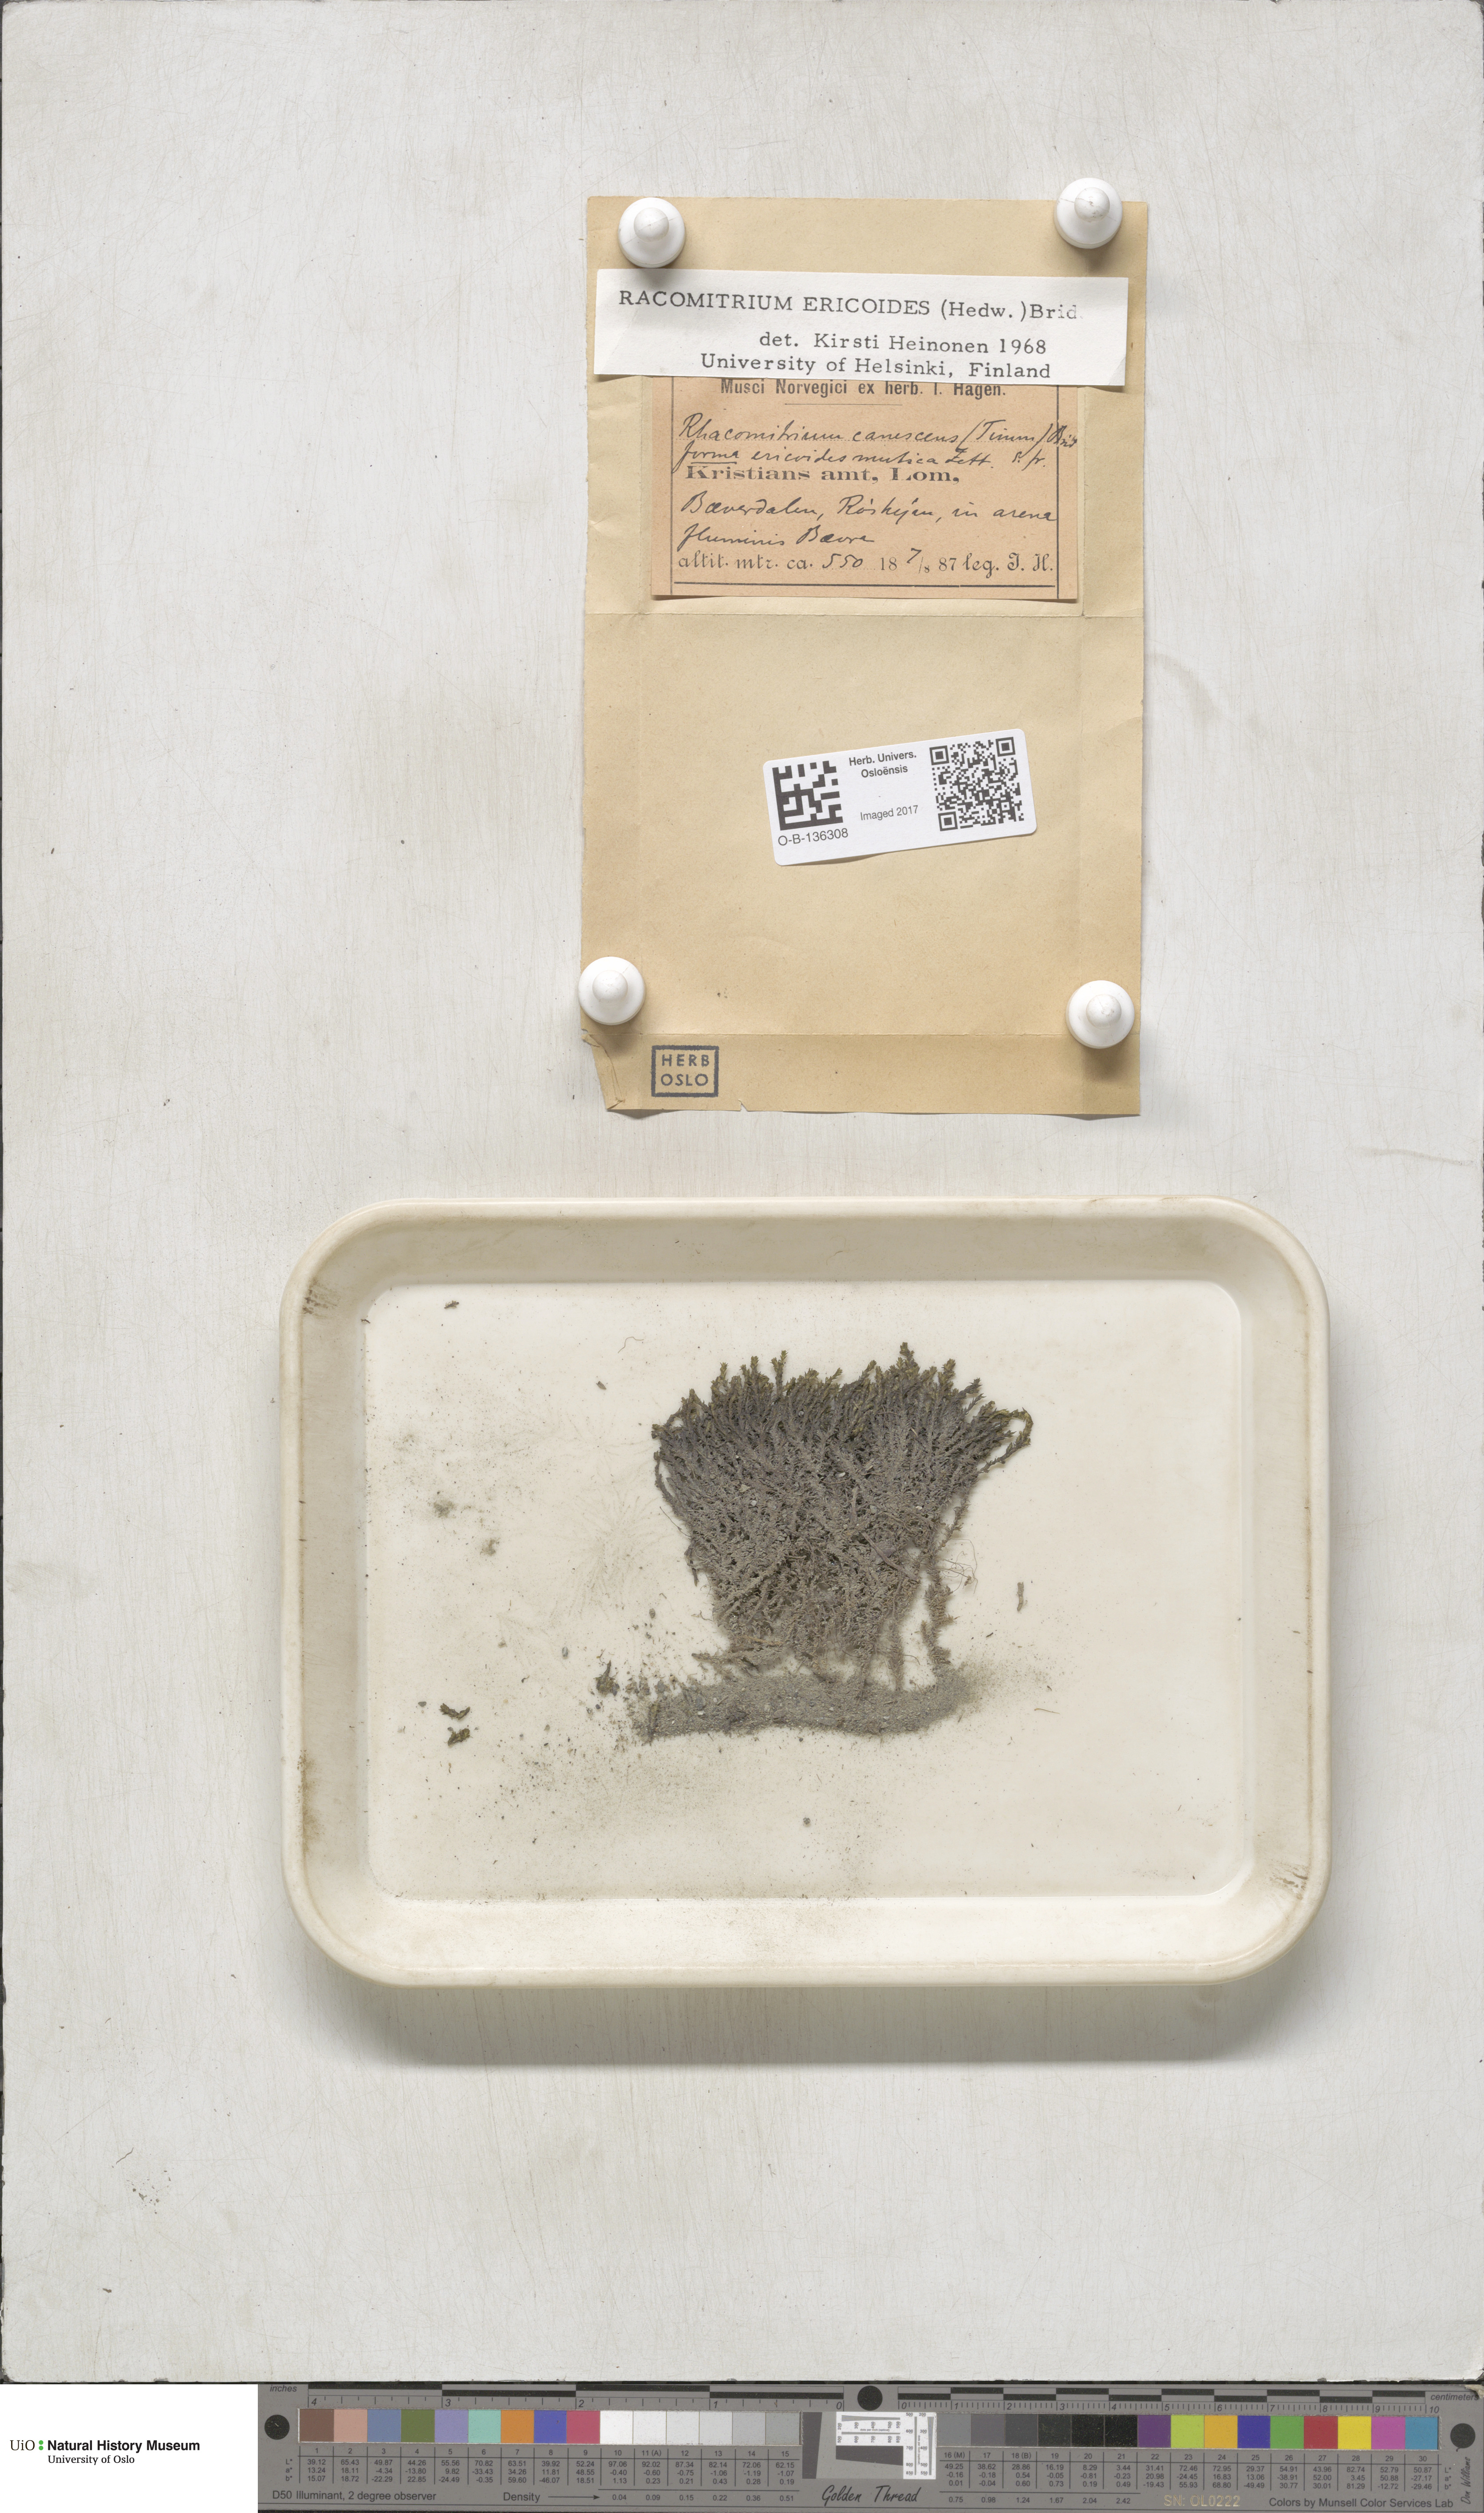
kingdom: Plantae
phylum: Bryophyta
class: Bryopsida
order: Grimmiales
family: Grimmiaceae
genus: Niphotrichum
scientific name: Niphotrichum ericoides
